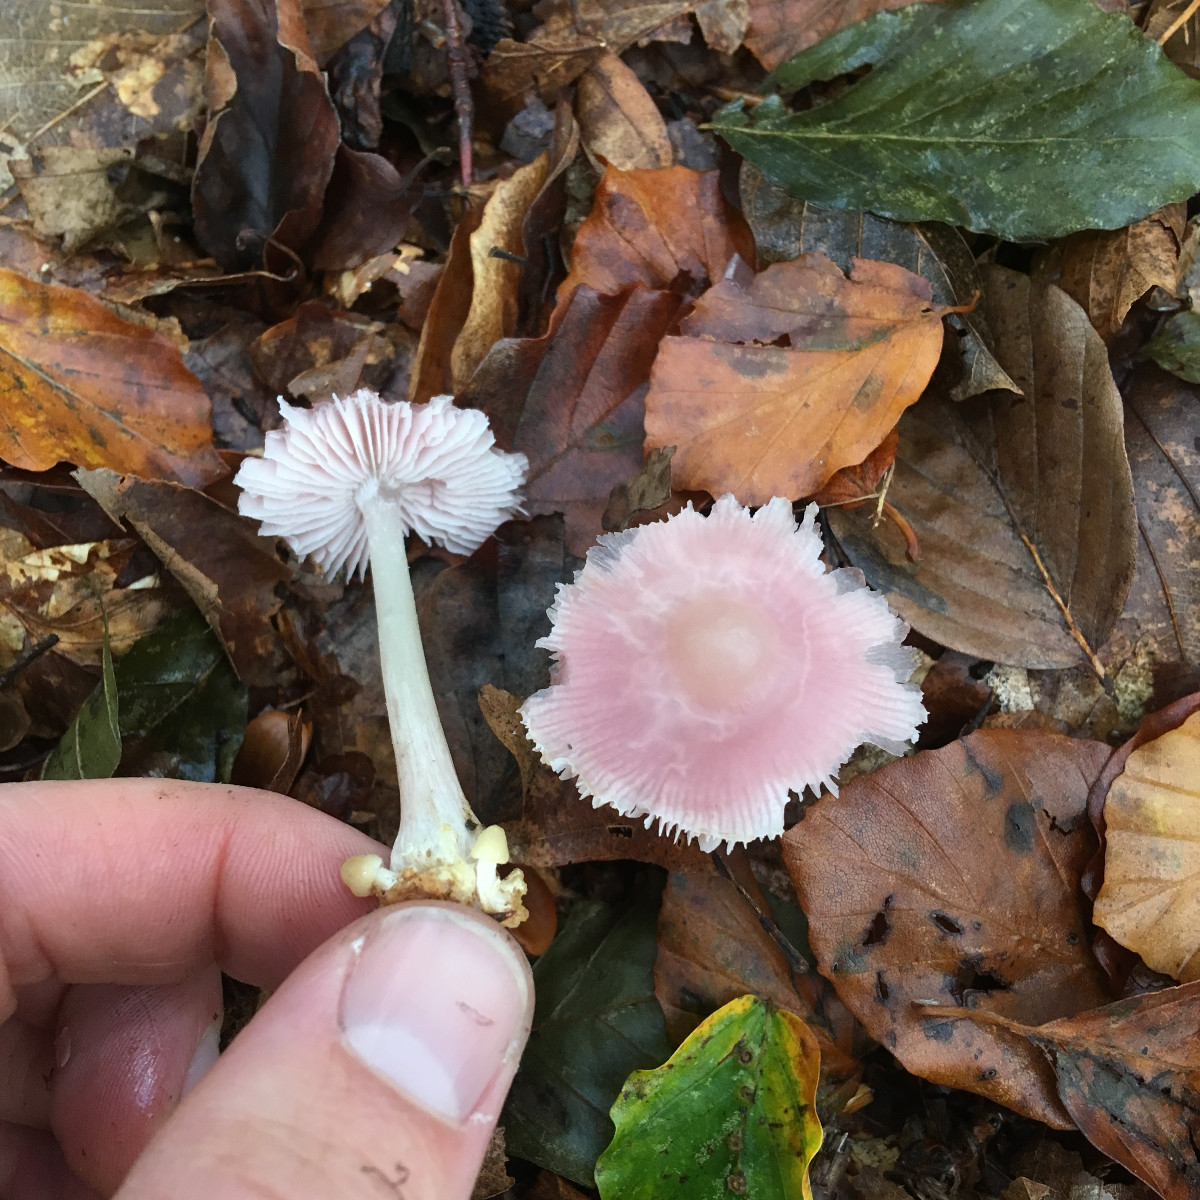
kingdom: Fungi
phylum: Basidiomycota
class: Agaricomycetes
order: Agaricales
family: Mycenaceae
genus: Mycena
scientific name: Mycena rosea
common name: rosa huesvamp
